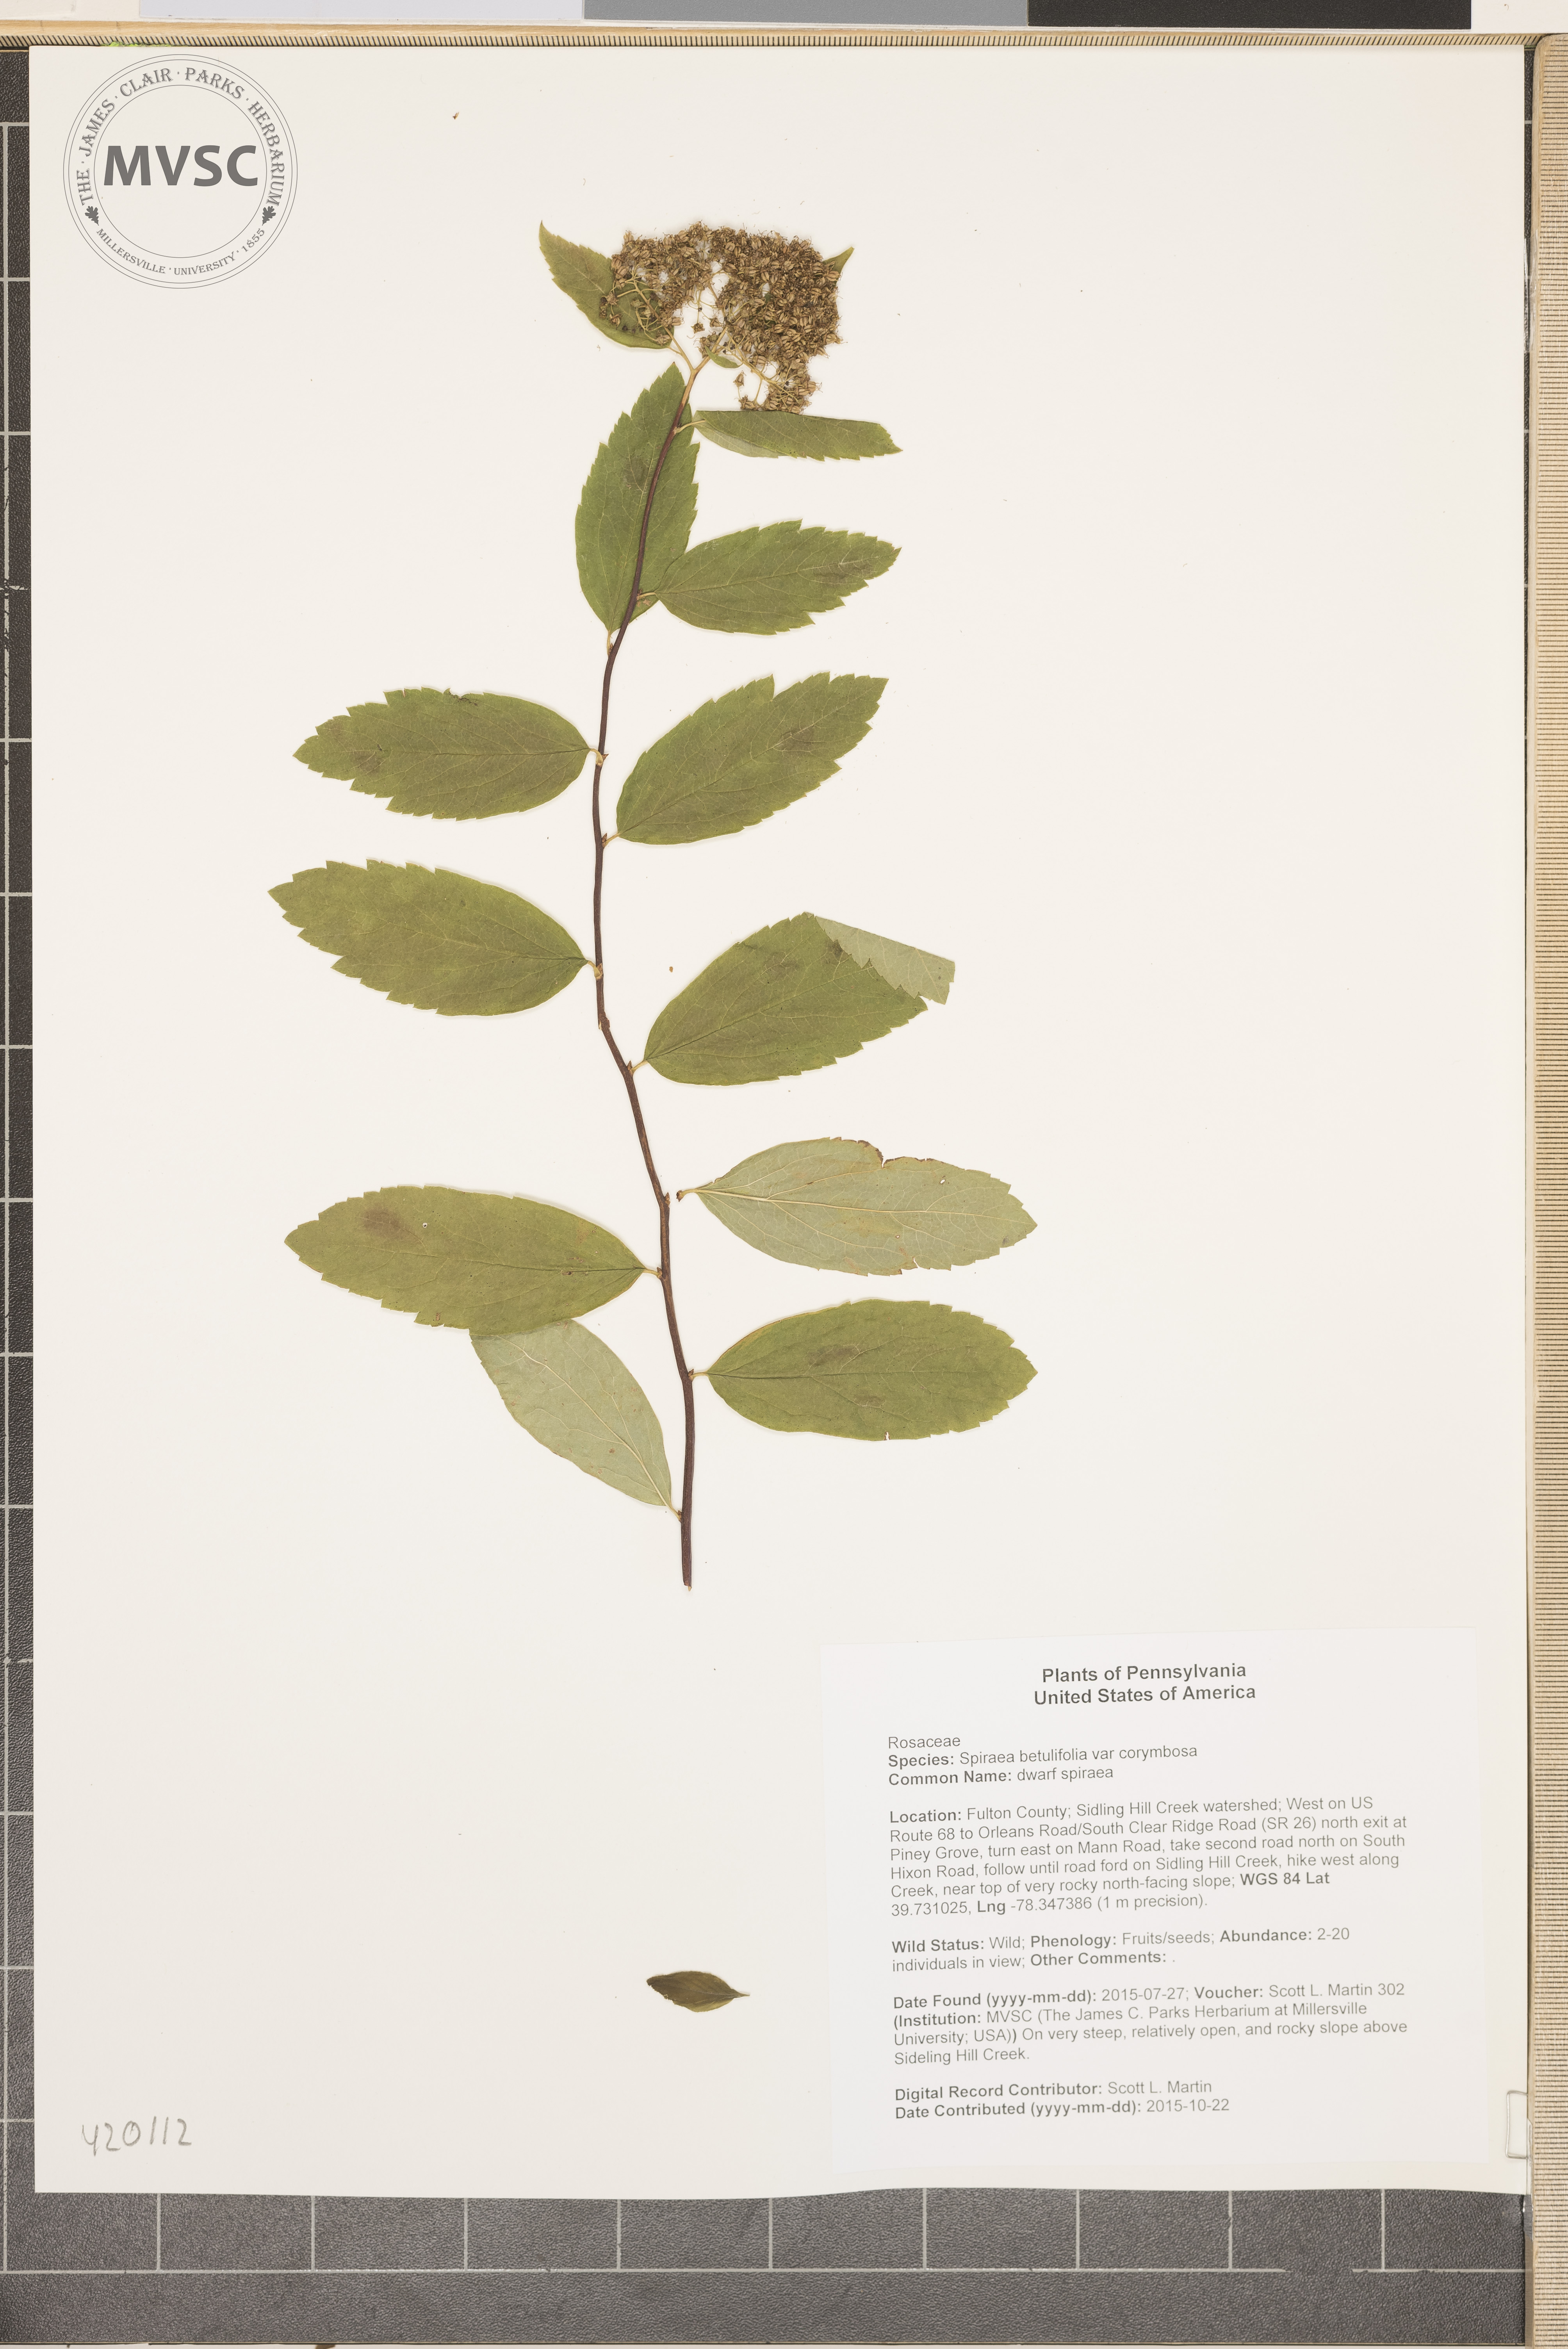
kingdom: Plantae
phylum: Tracheophyta
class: Magnoliopsida
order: Rosales
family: Rosaceae
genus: Spiraea
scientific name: Spiraea betulifolia
